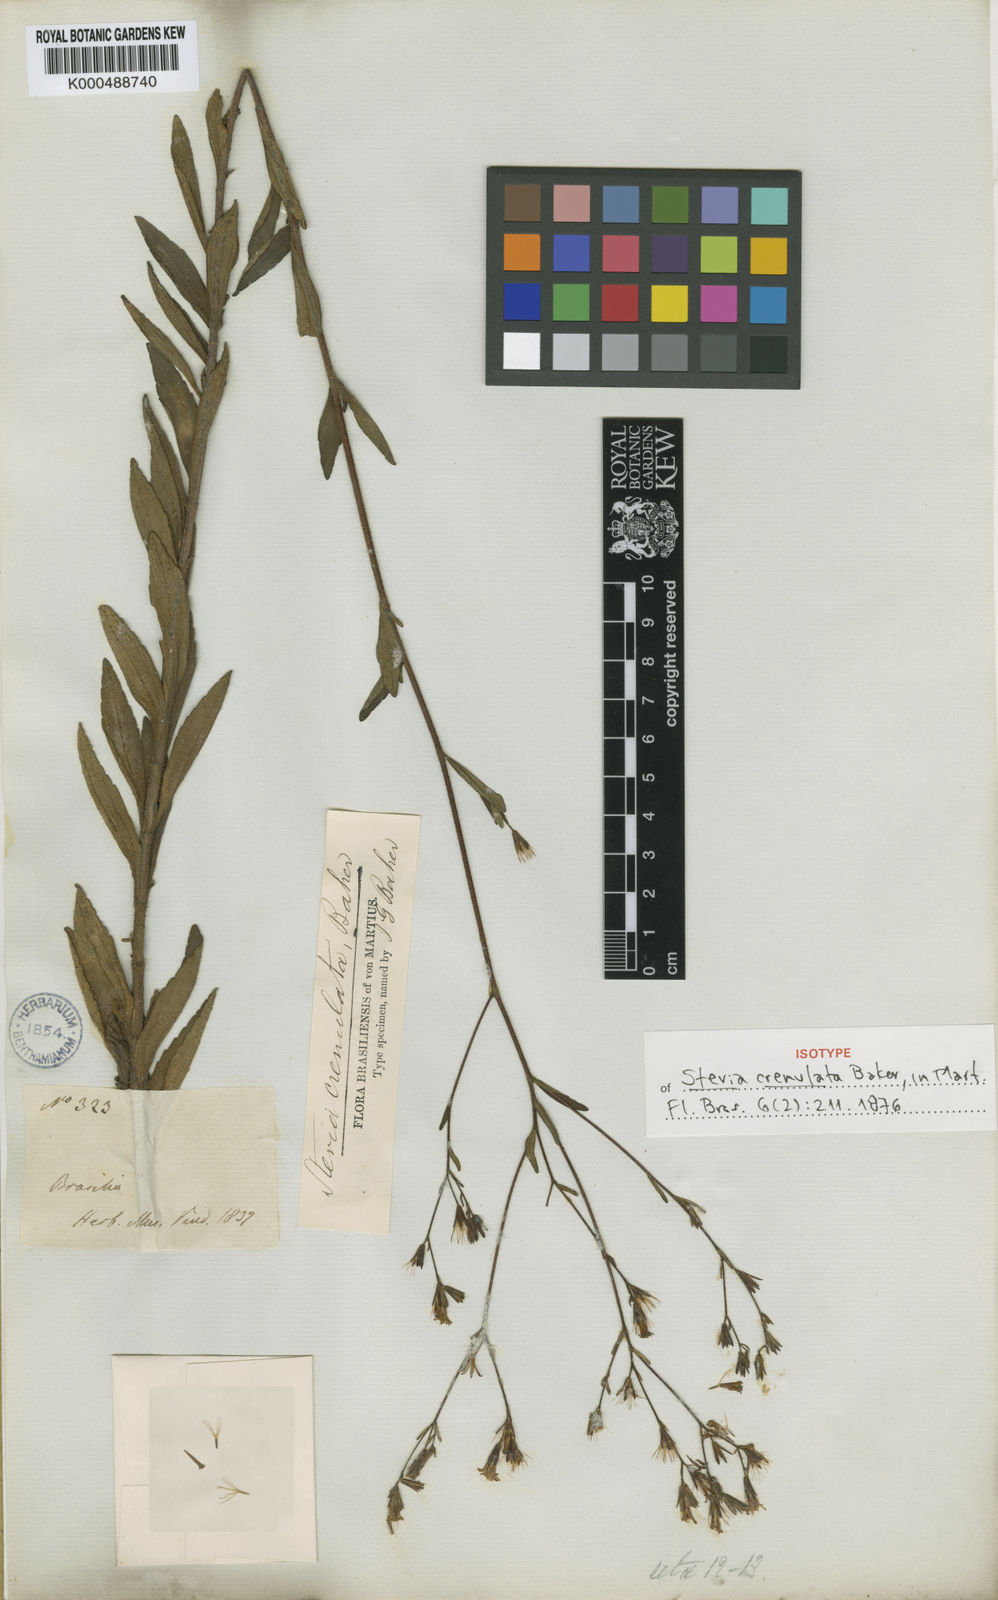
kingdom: Plantae
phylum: Tracheophyta
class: Magnoliopsida
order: Asterales
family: Asteraceae
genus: Stevia
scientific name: Stevia crenulata
